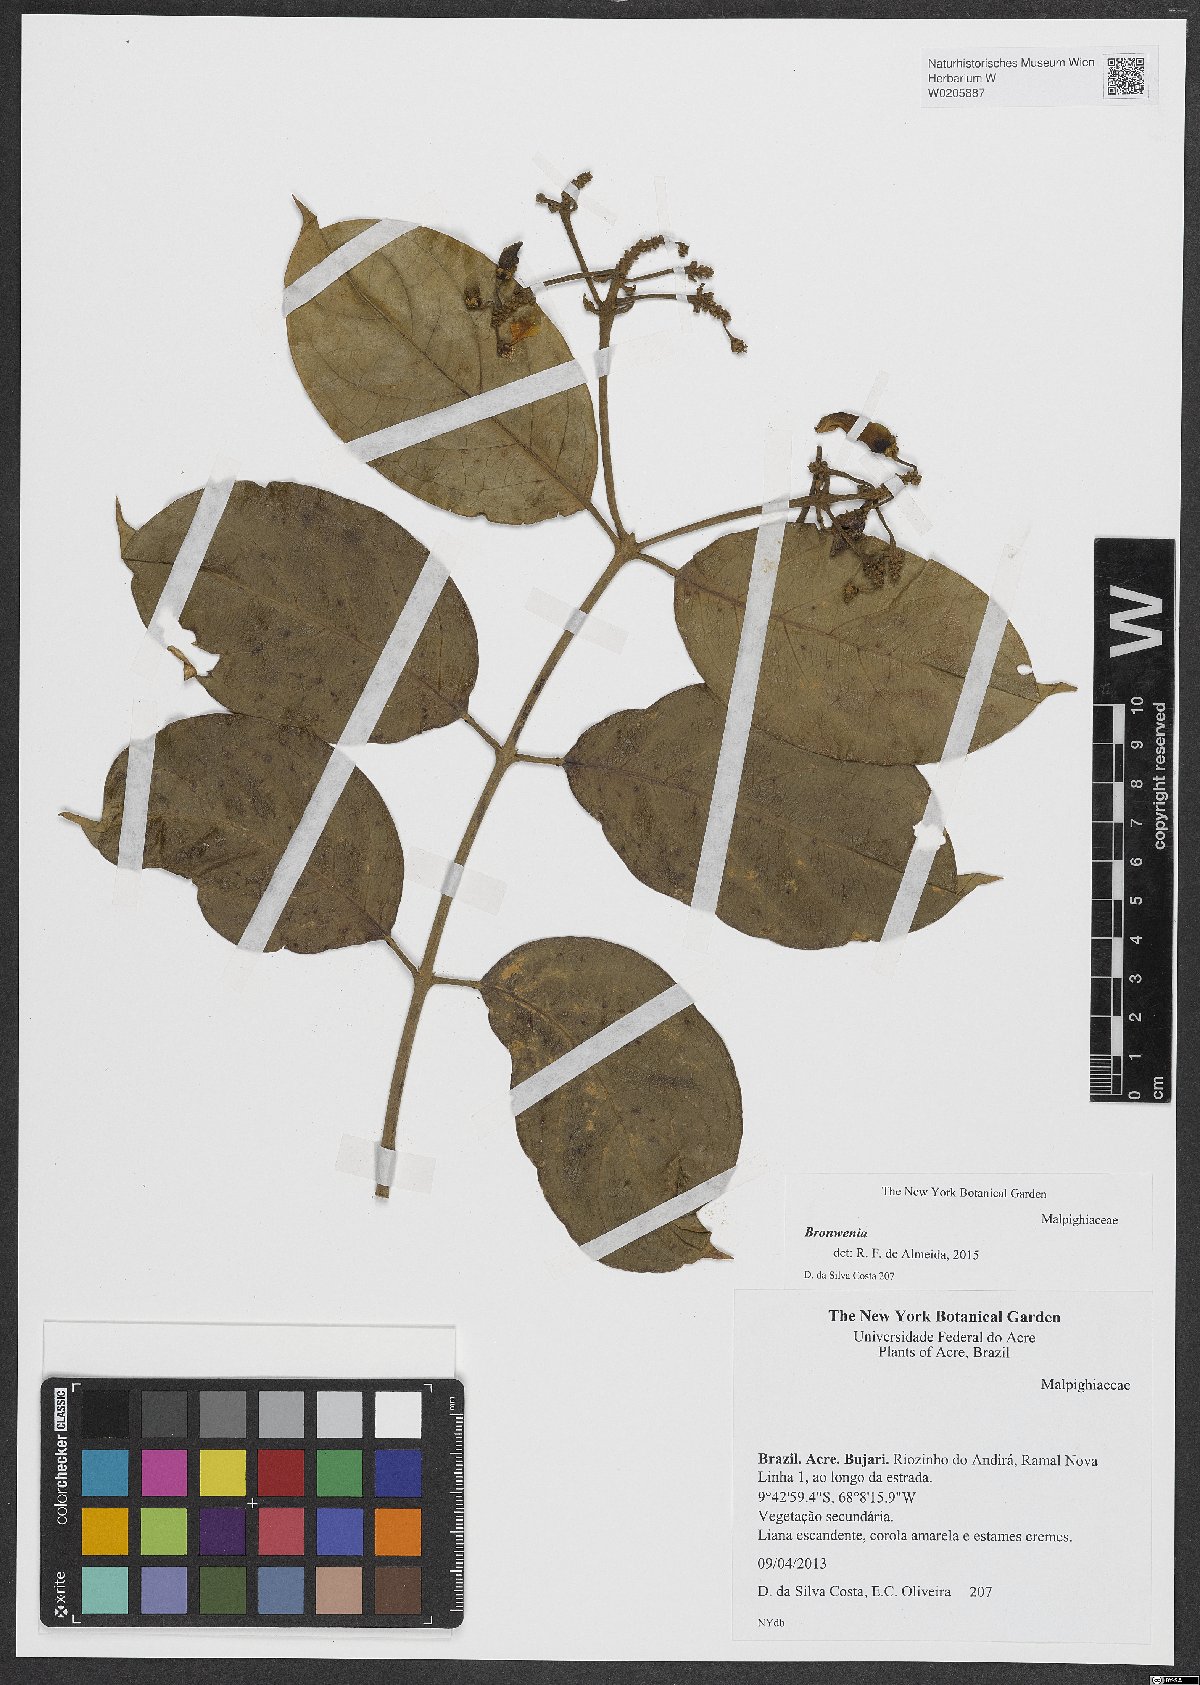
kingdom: Plantae
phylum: Tracheophyta
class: Magnoliopsida
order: Malpighiales
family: Malpighiaceae
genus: Bronwenia
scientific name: Bronwenia
